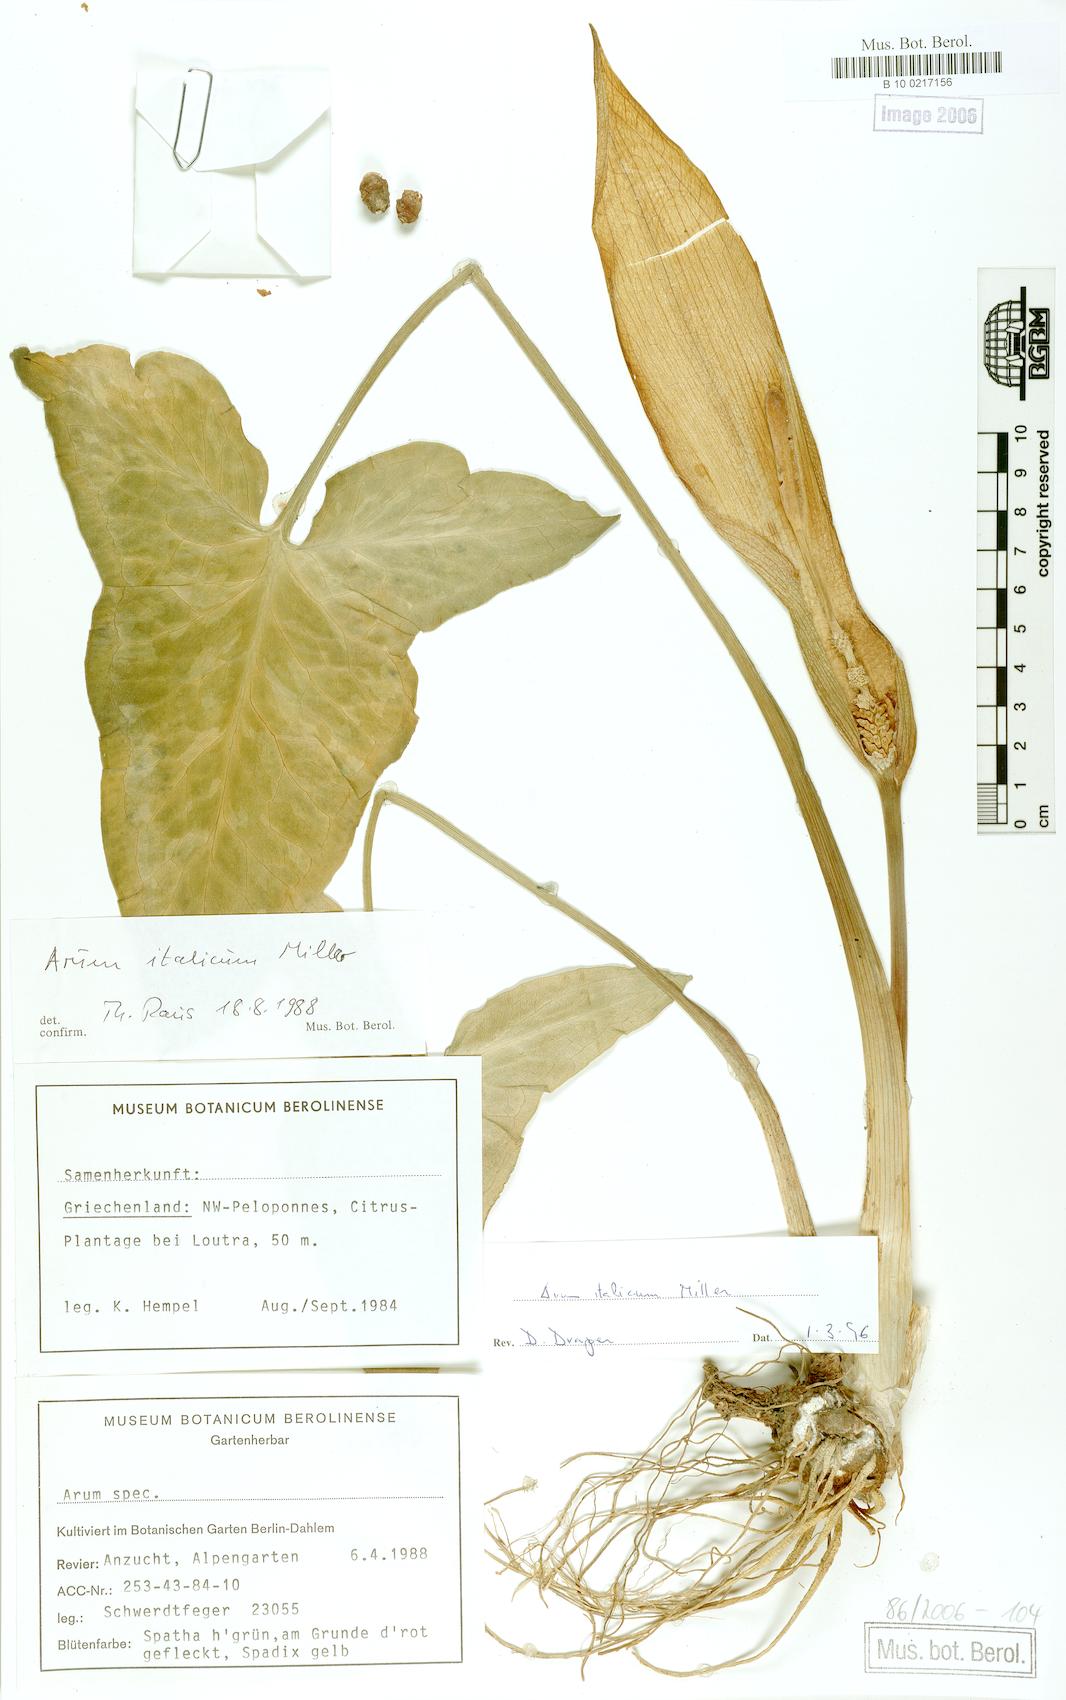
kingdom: Plantae
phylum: Tracheophyta
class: Liliopsida
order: Alismatales
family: Araceae
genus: Arum
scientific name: Arum italicum
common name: Italian lords-and-ladies
